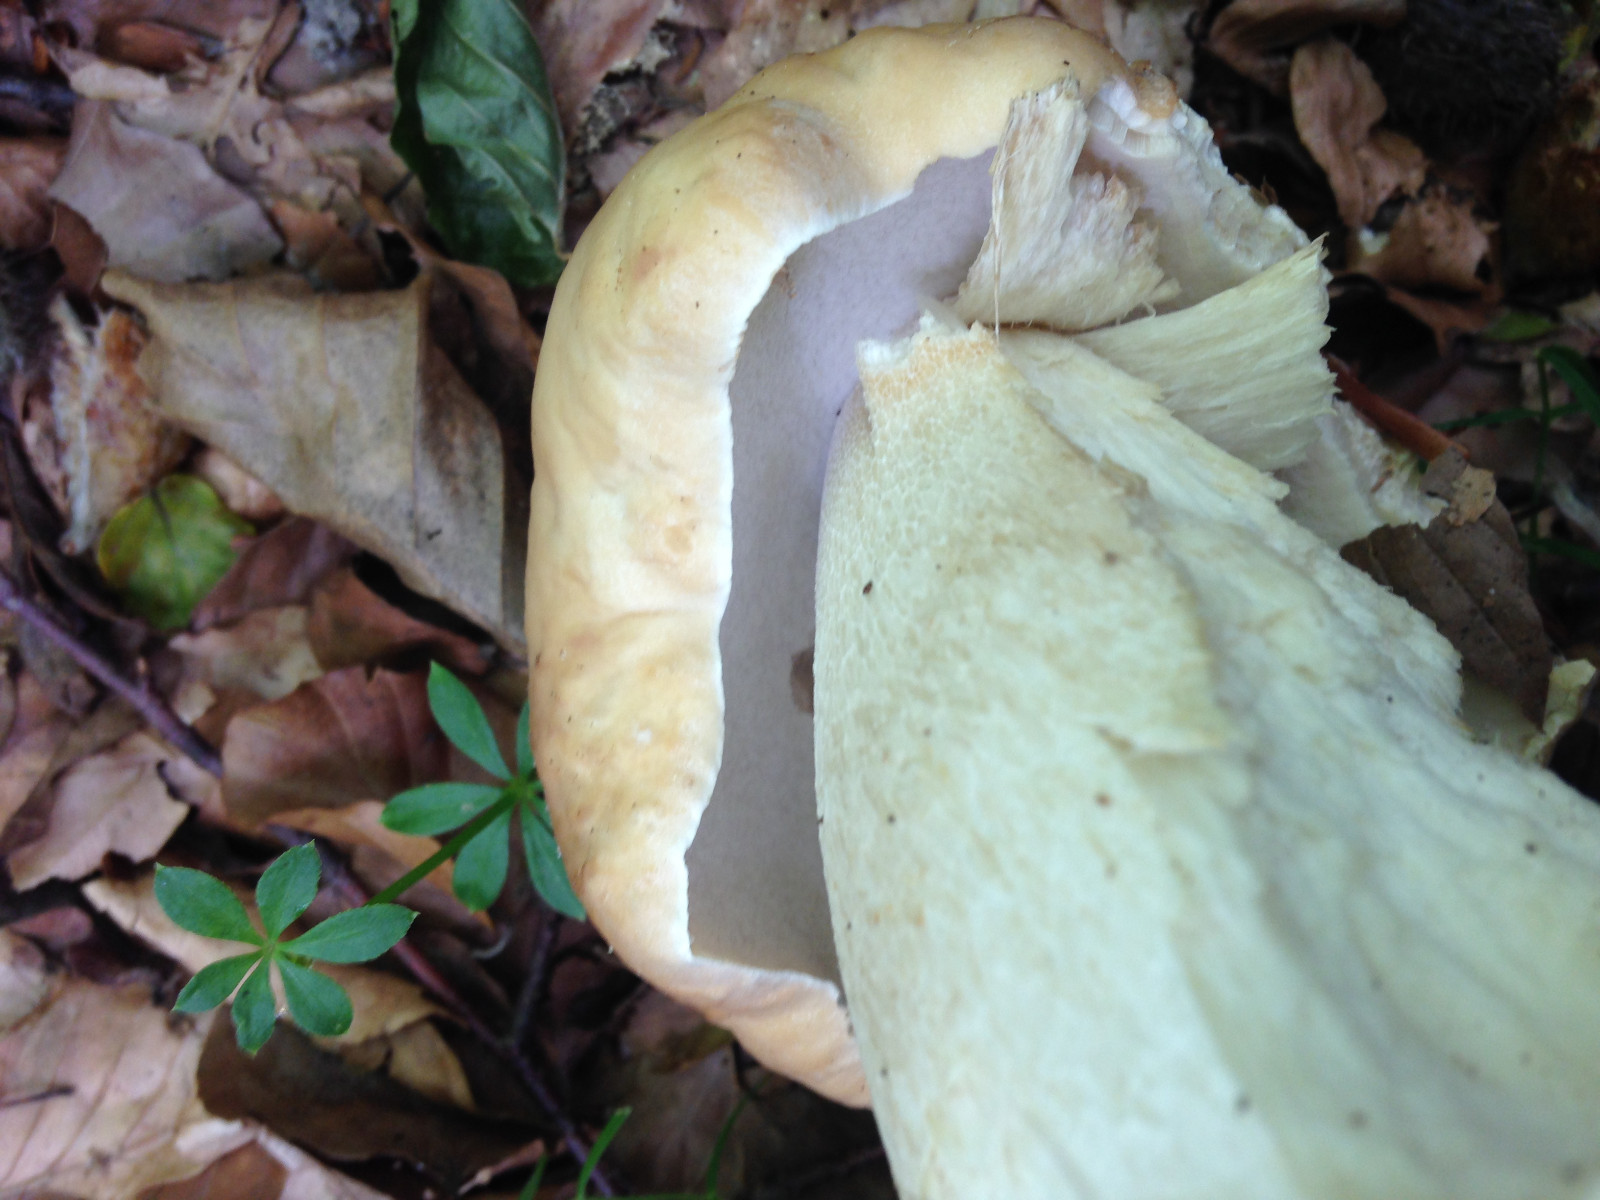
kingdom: Fungi
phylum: Basidiomycota
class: Agaricomycetes
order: Boletales
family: Boletaceae
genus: Boletus
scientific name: Boletus edulis
